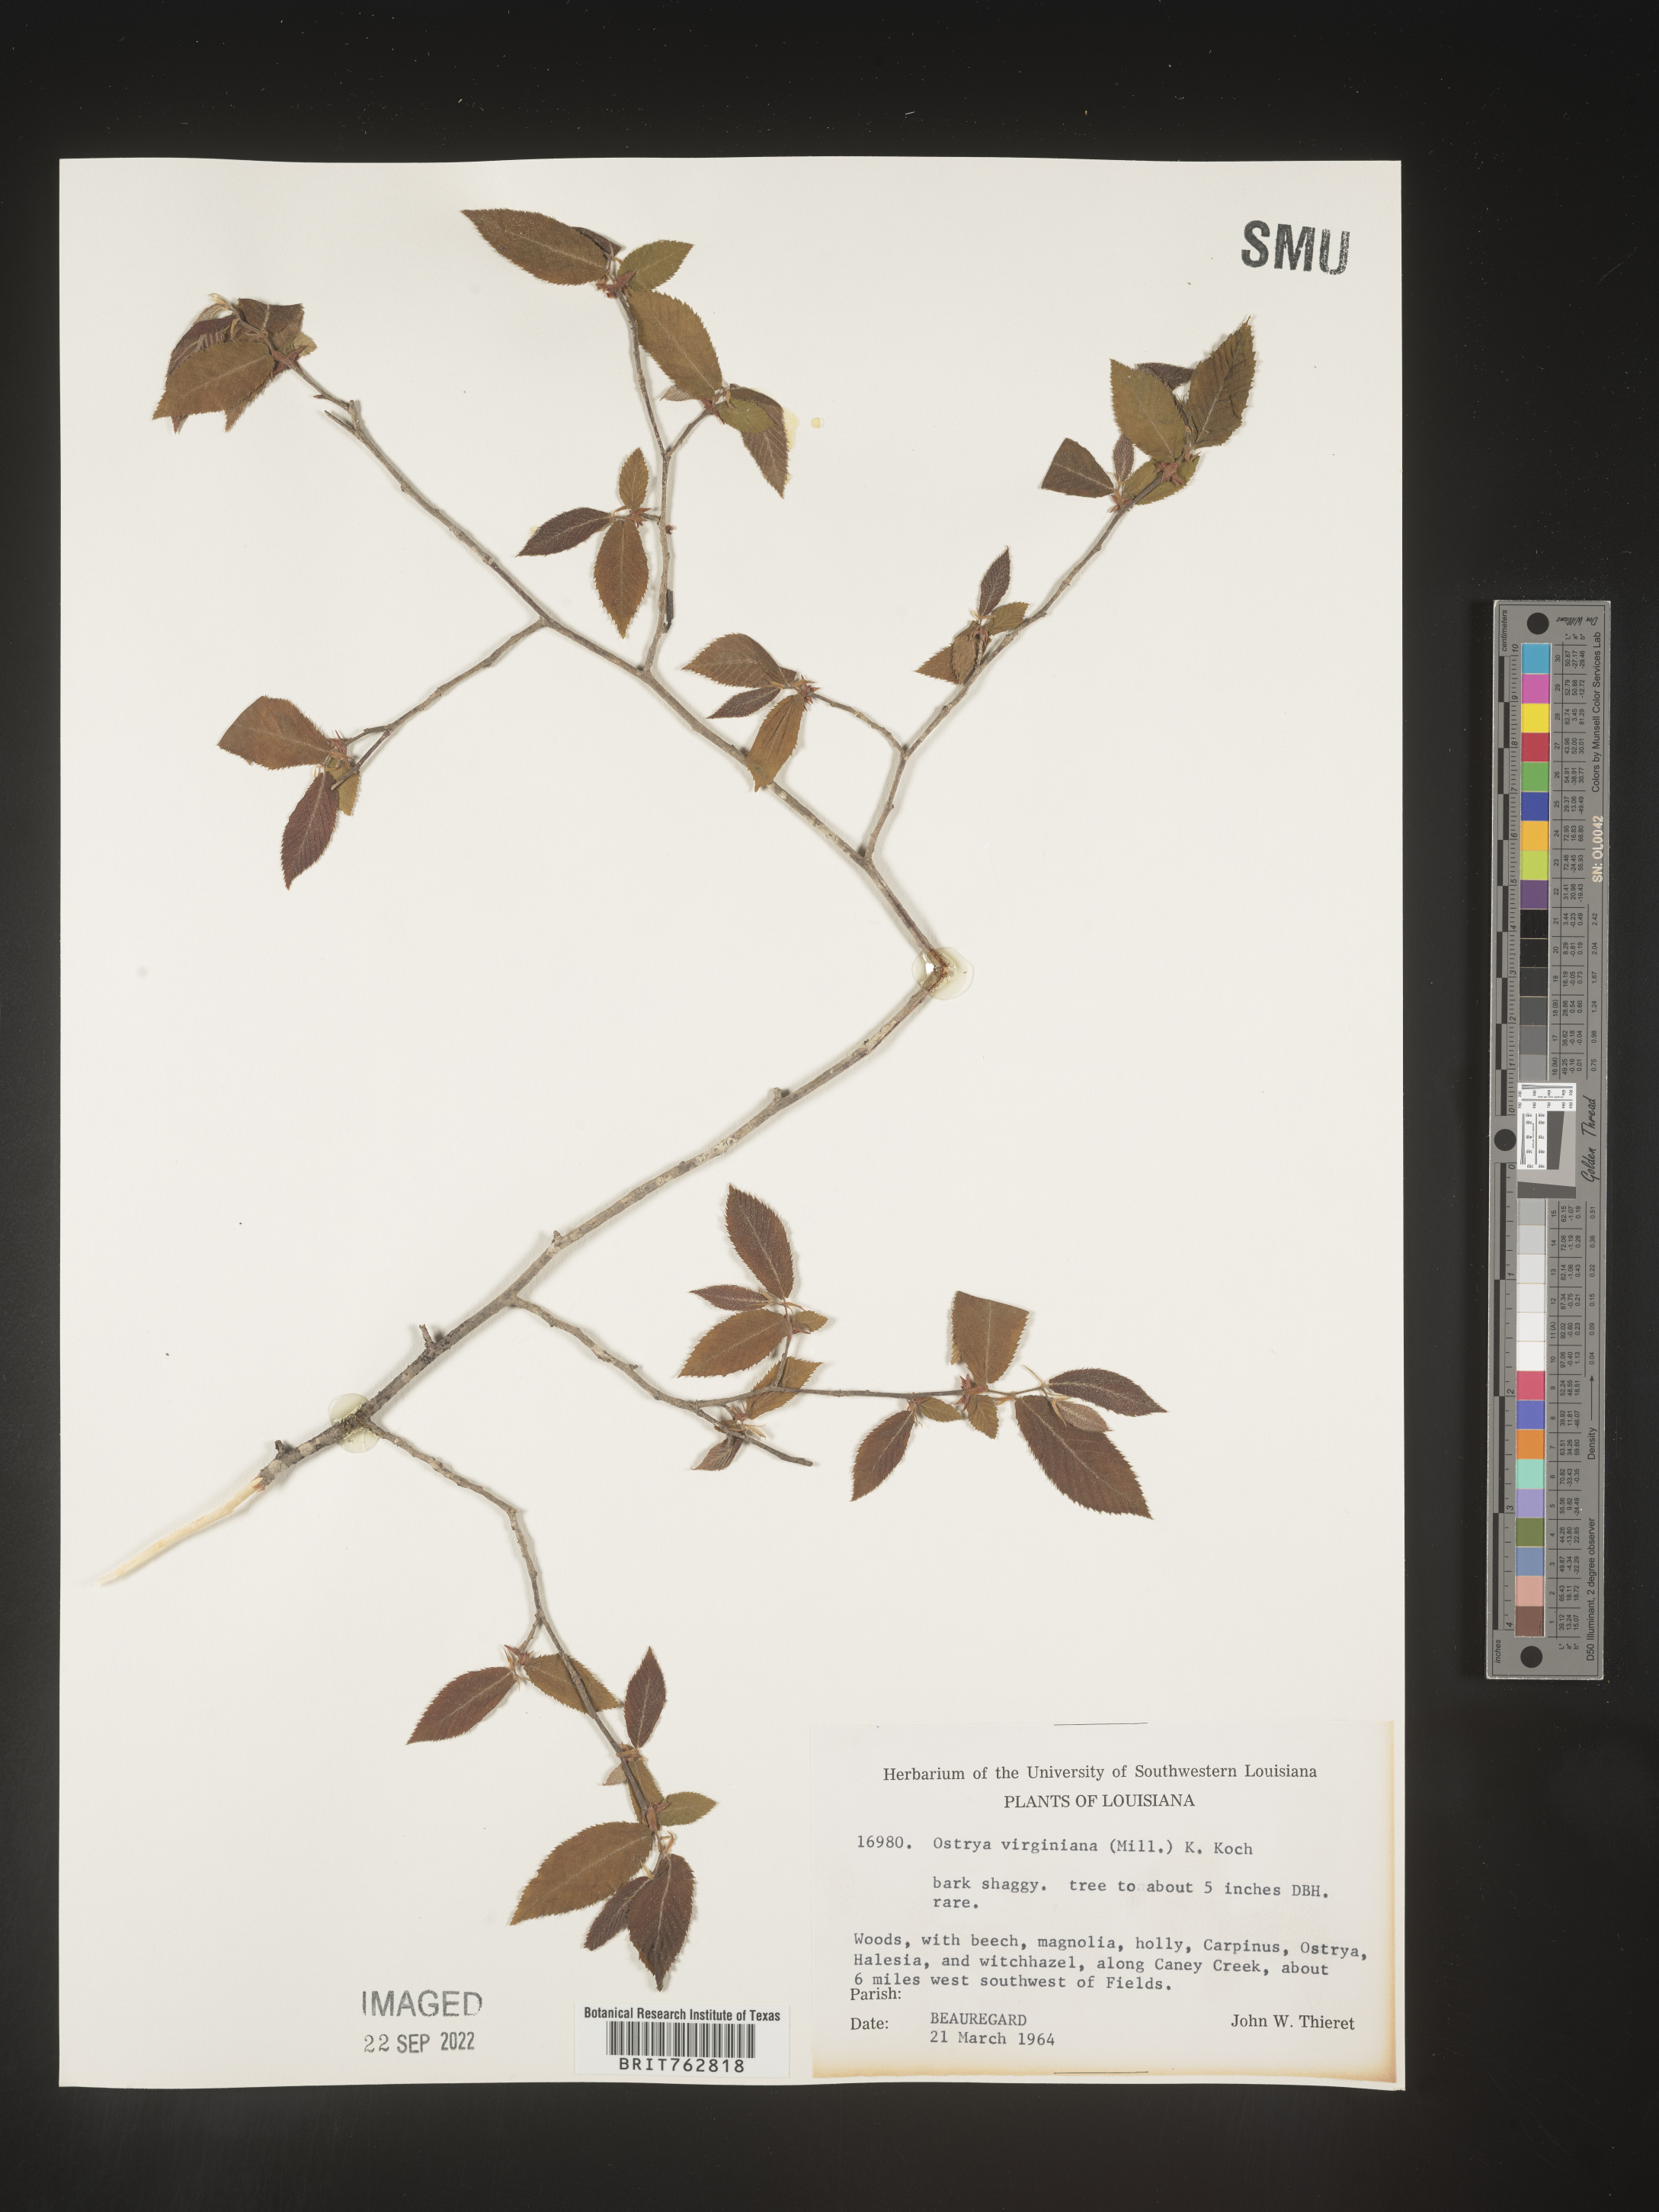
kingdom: Plantae
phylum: Tracheophyta
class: Magnoliopsida
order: Fagales
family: Betulaceae
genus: Ostrya
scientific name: Ostrya virginiana
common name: Ironwood
